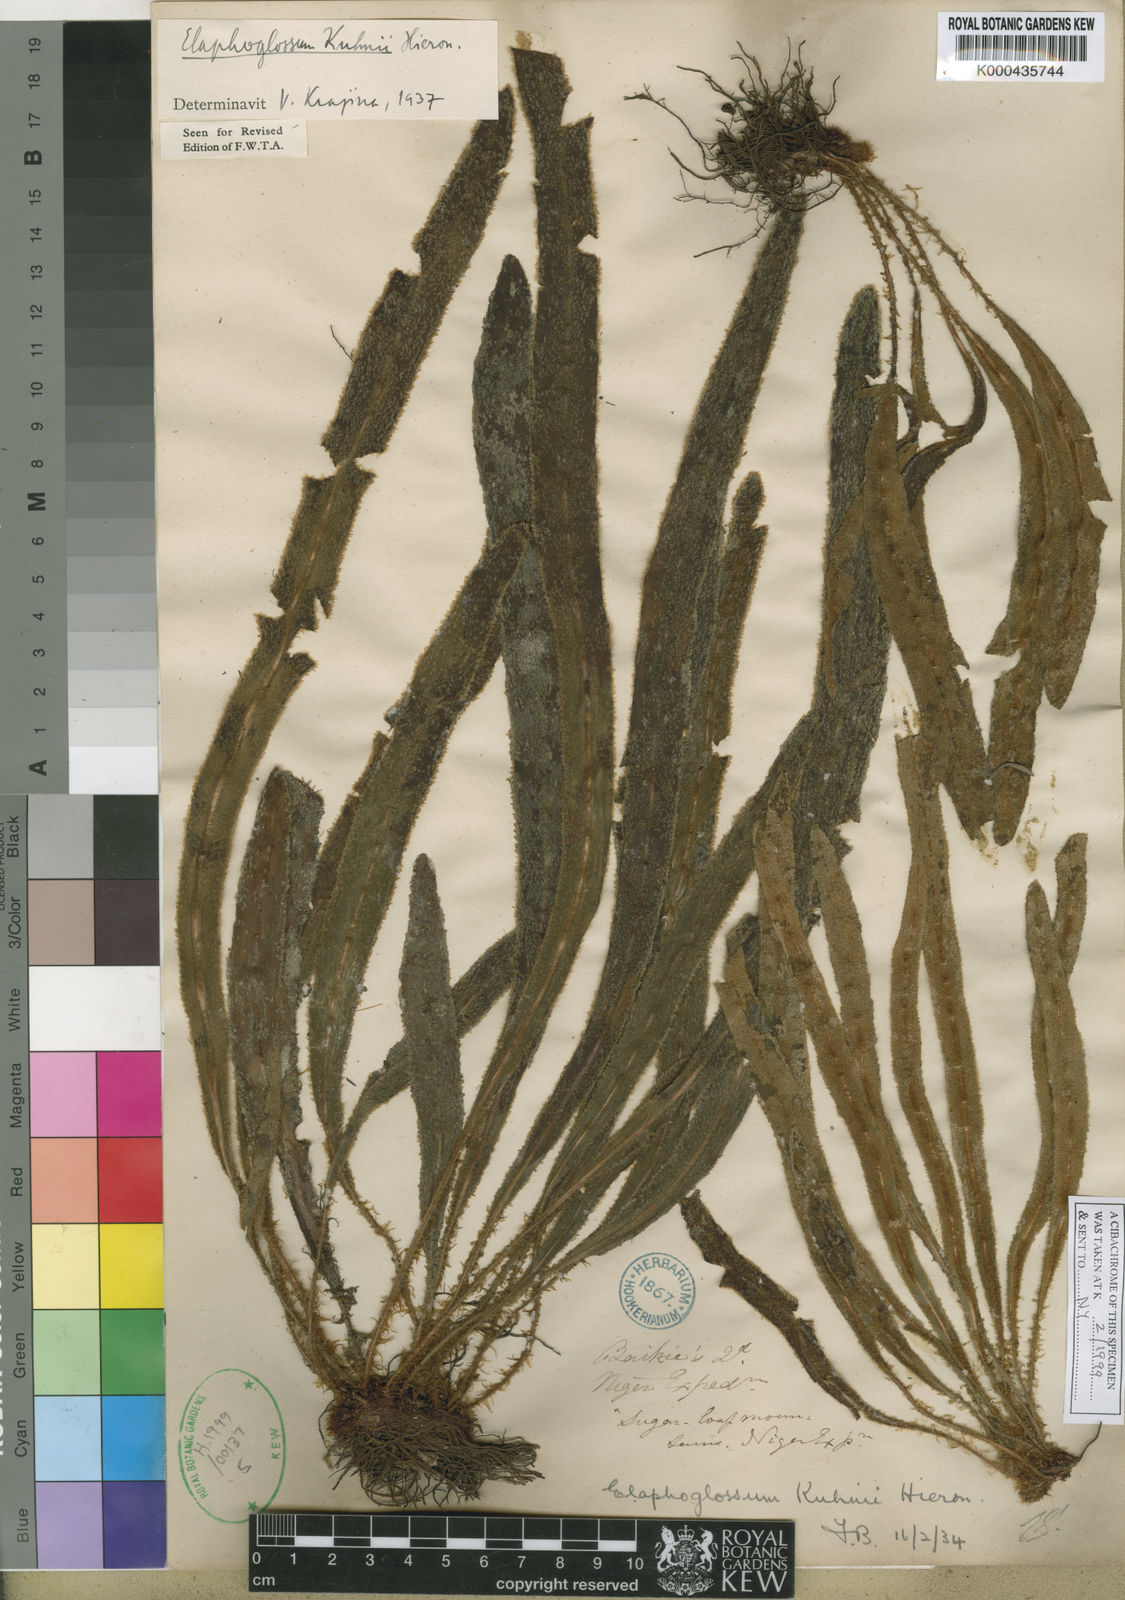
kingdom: Plantae
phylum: Tracheophyta
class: Polypodiopsida
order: Polypodiales
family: Dryopteridaceae
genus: Elaphoglossum
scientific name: Elaphoglossum kuhnii
